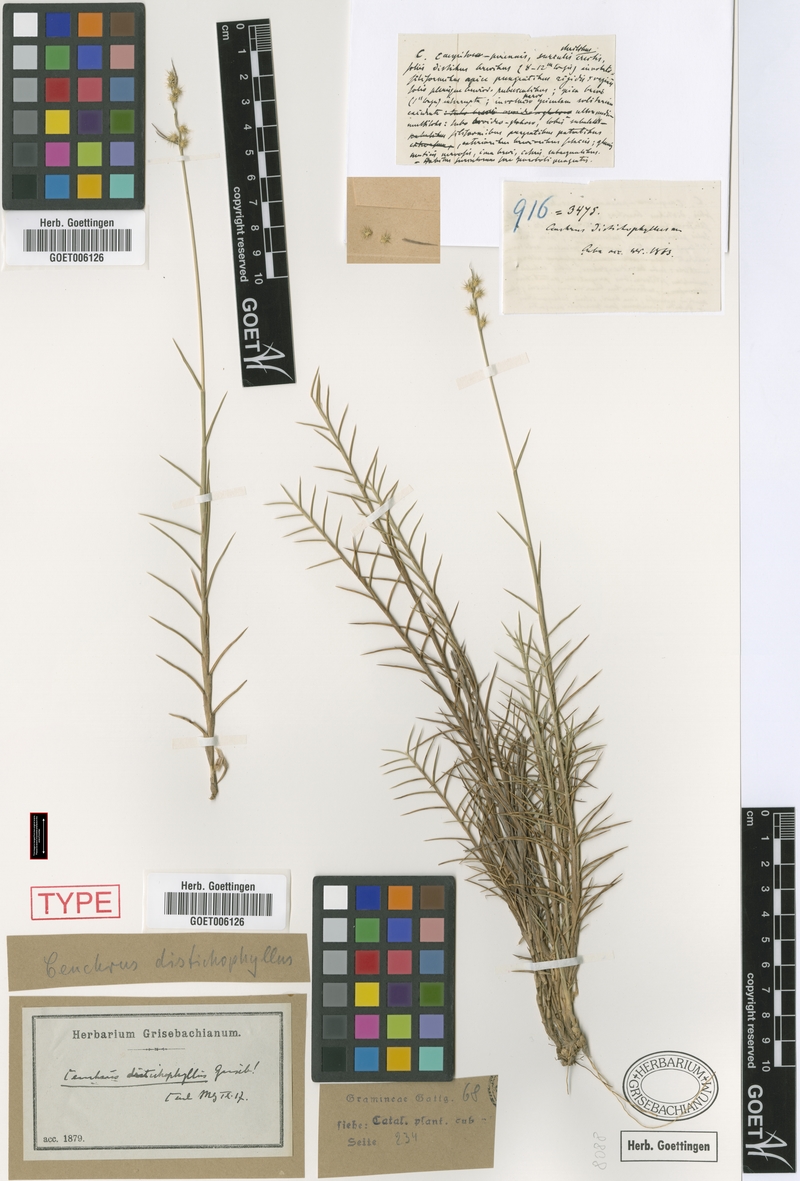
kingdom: Plantae
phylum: Tracheophyta
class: Liliopsida
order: Poales
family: Poaceae
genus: Cenchrus
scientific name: Cenchrus distichophyllus
